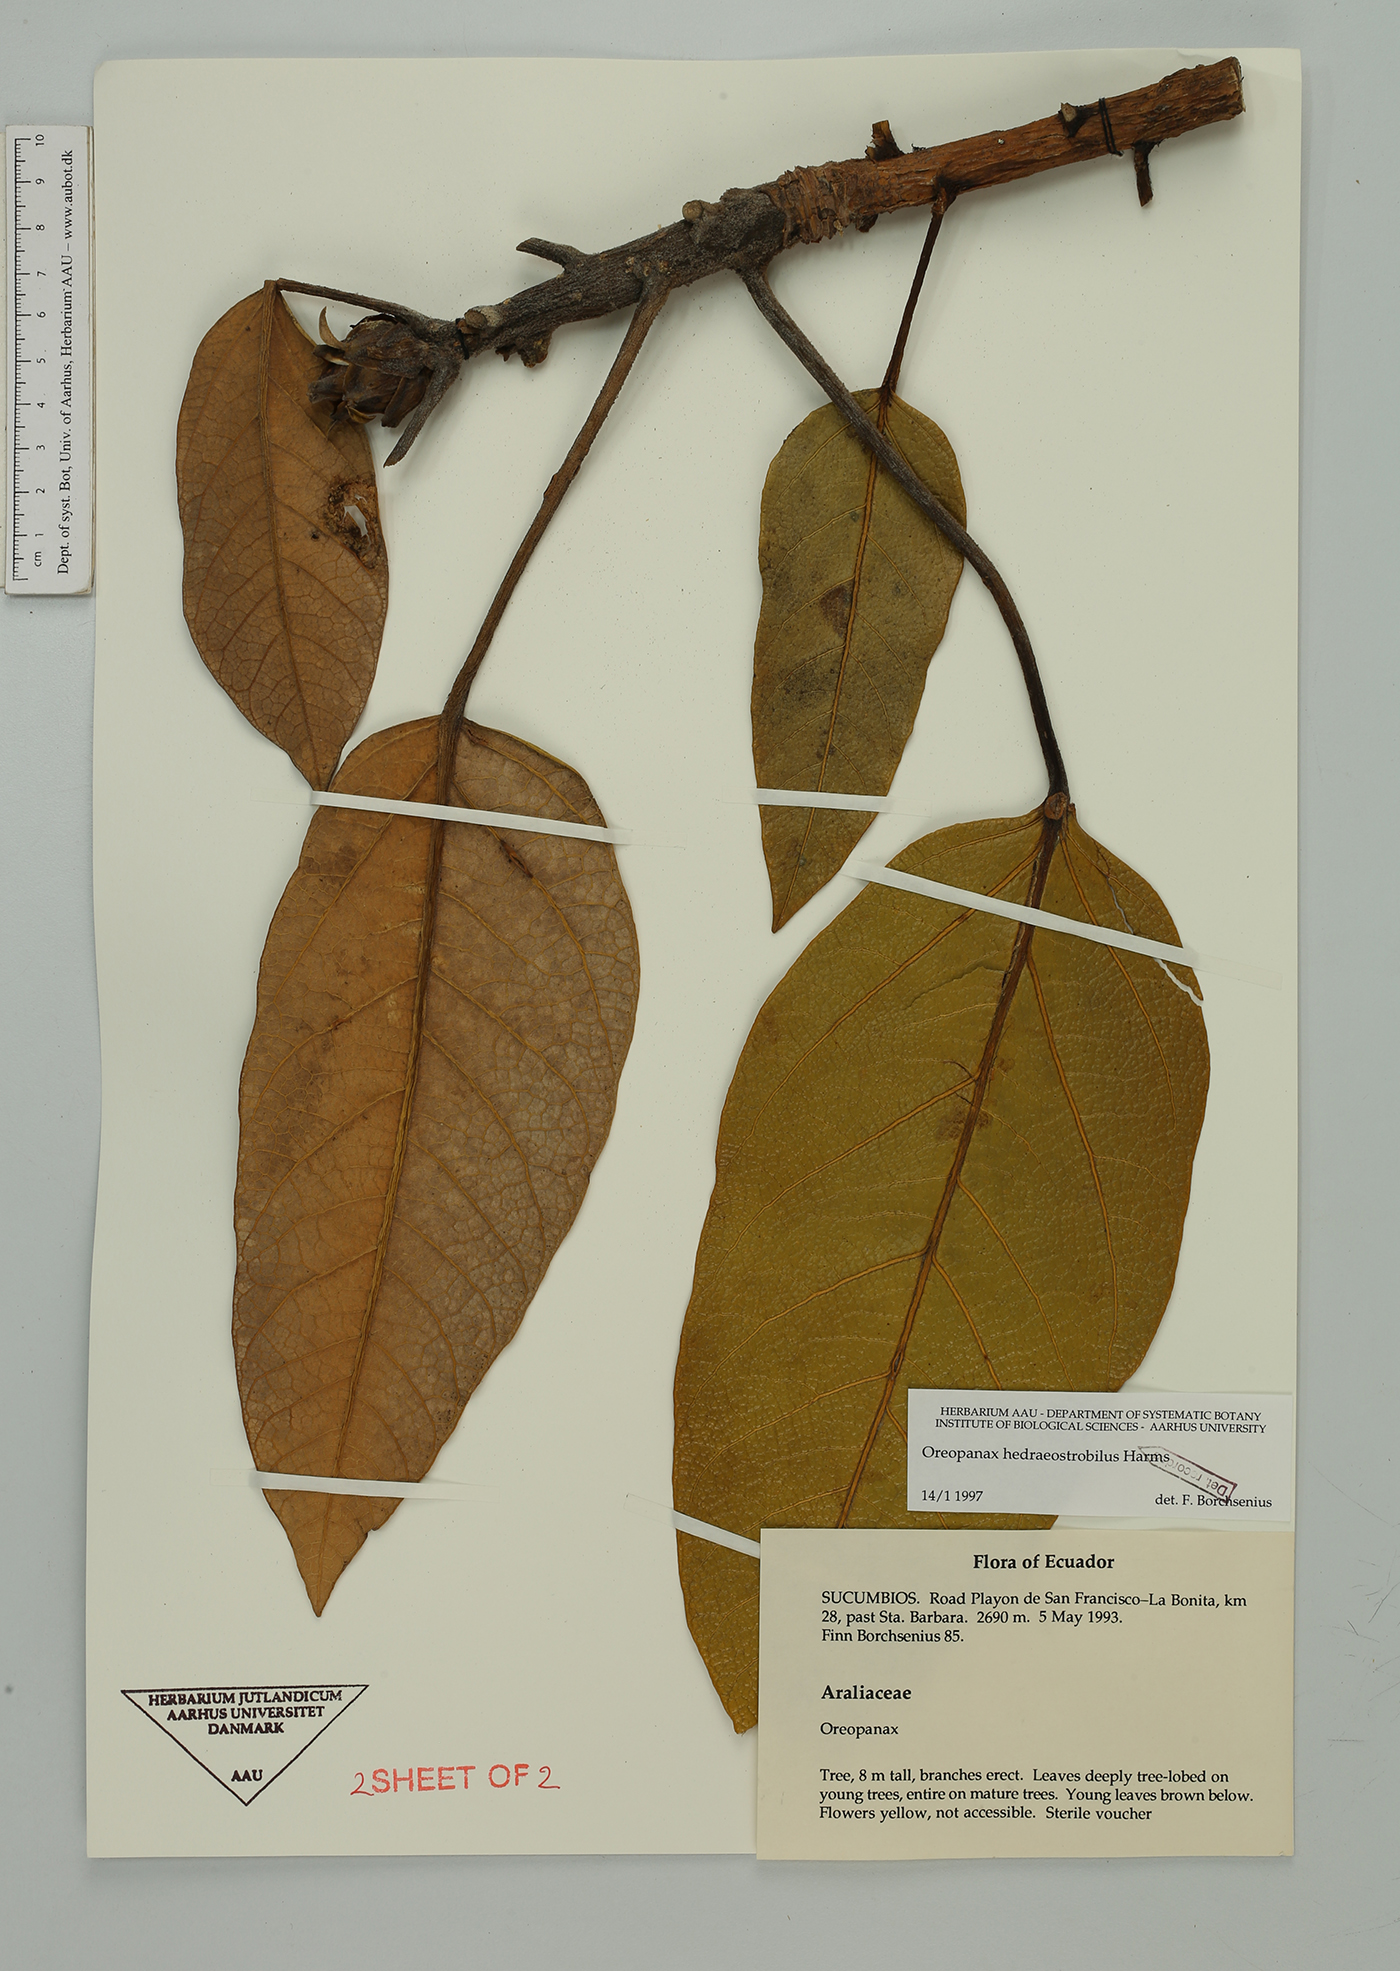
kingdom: Plantae
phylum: Tracheophyta
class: Magnoliopsida
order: Apiales
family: Araliaceae
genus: Oreopanax
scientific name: Oreopanax hedraeostrobilus
